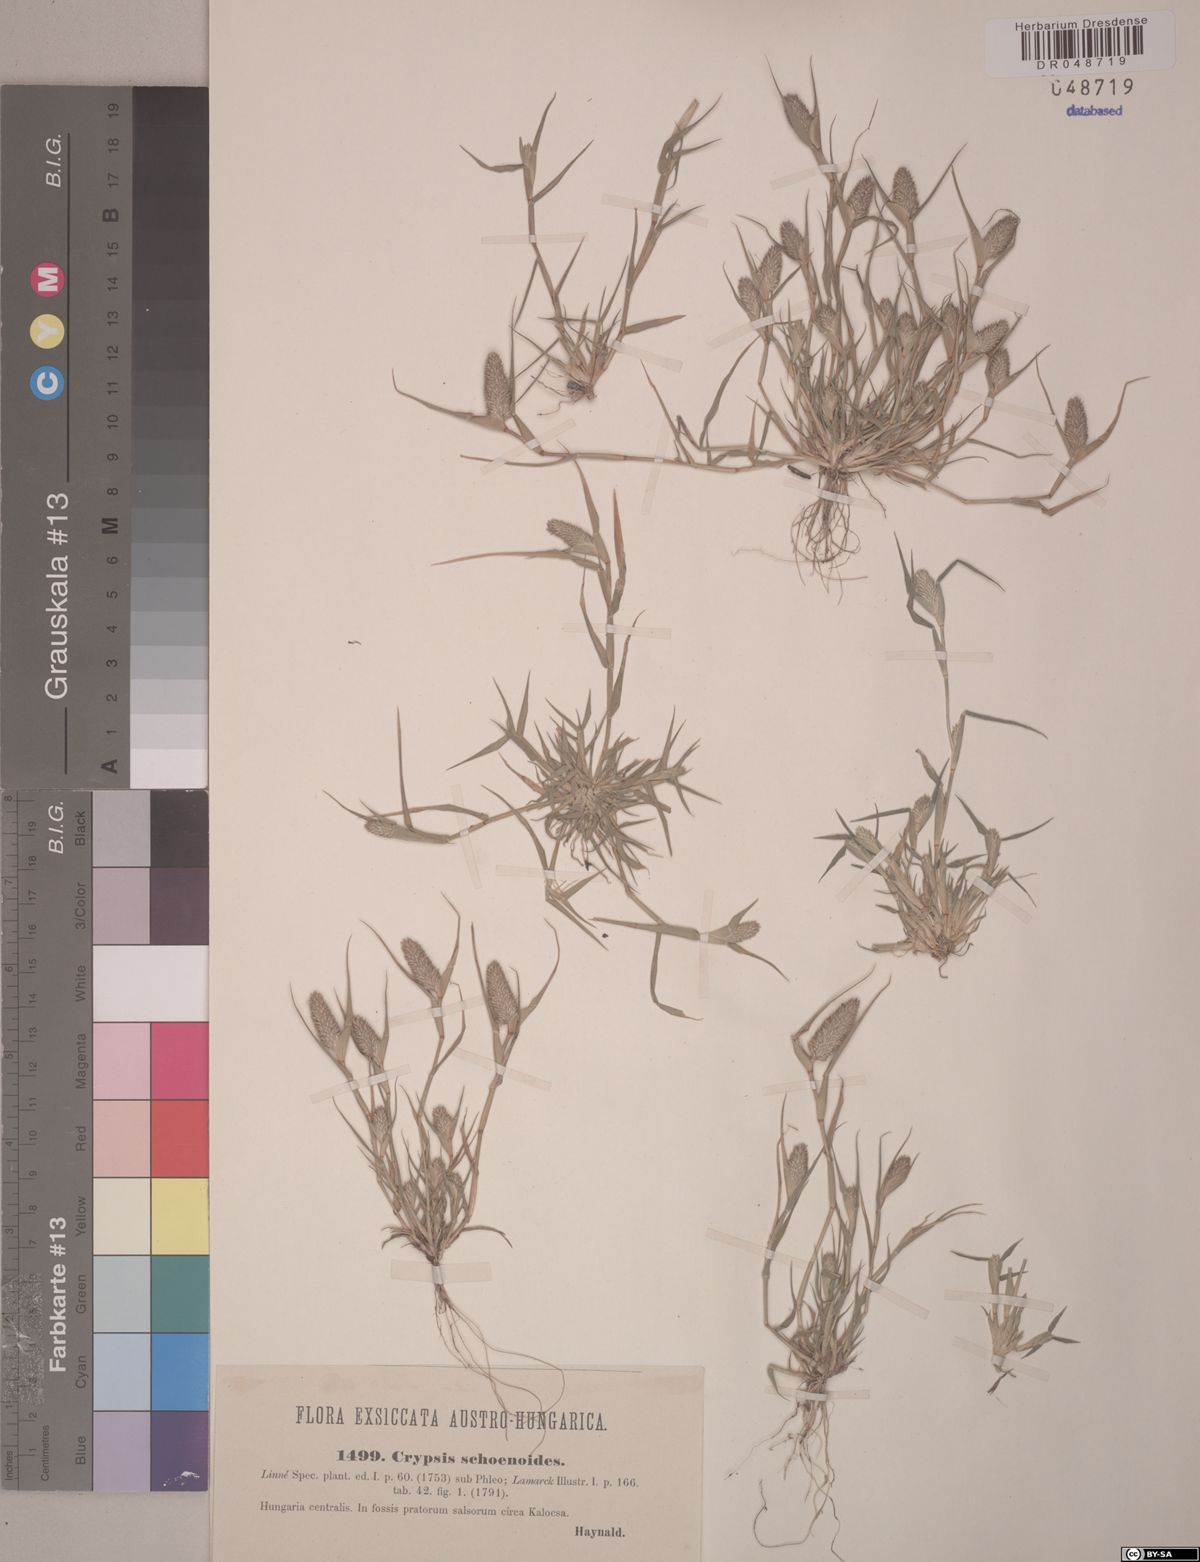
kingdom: Plantae
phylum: Tracheophyta
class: Liliopsida
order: Poales
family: Poaceae
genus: Sporobolus
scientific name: Sporobolus schoenoides
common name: Rush-like timothy
